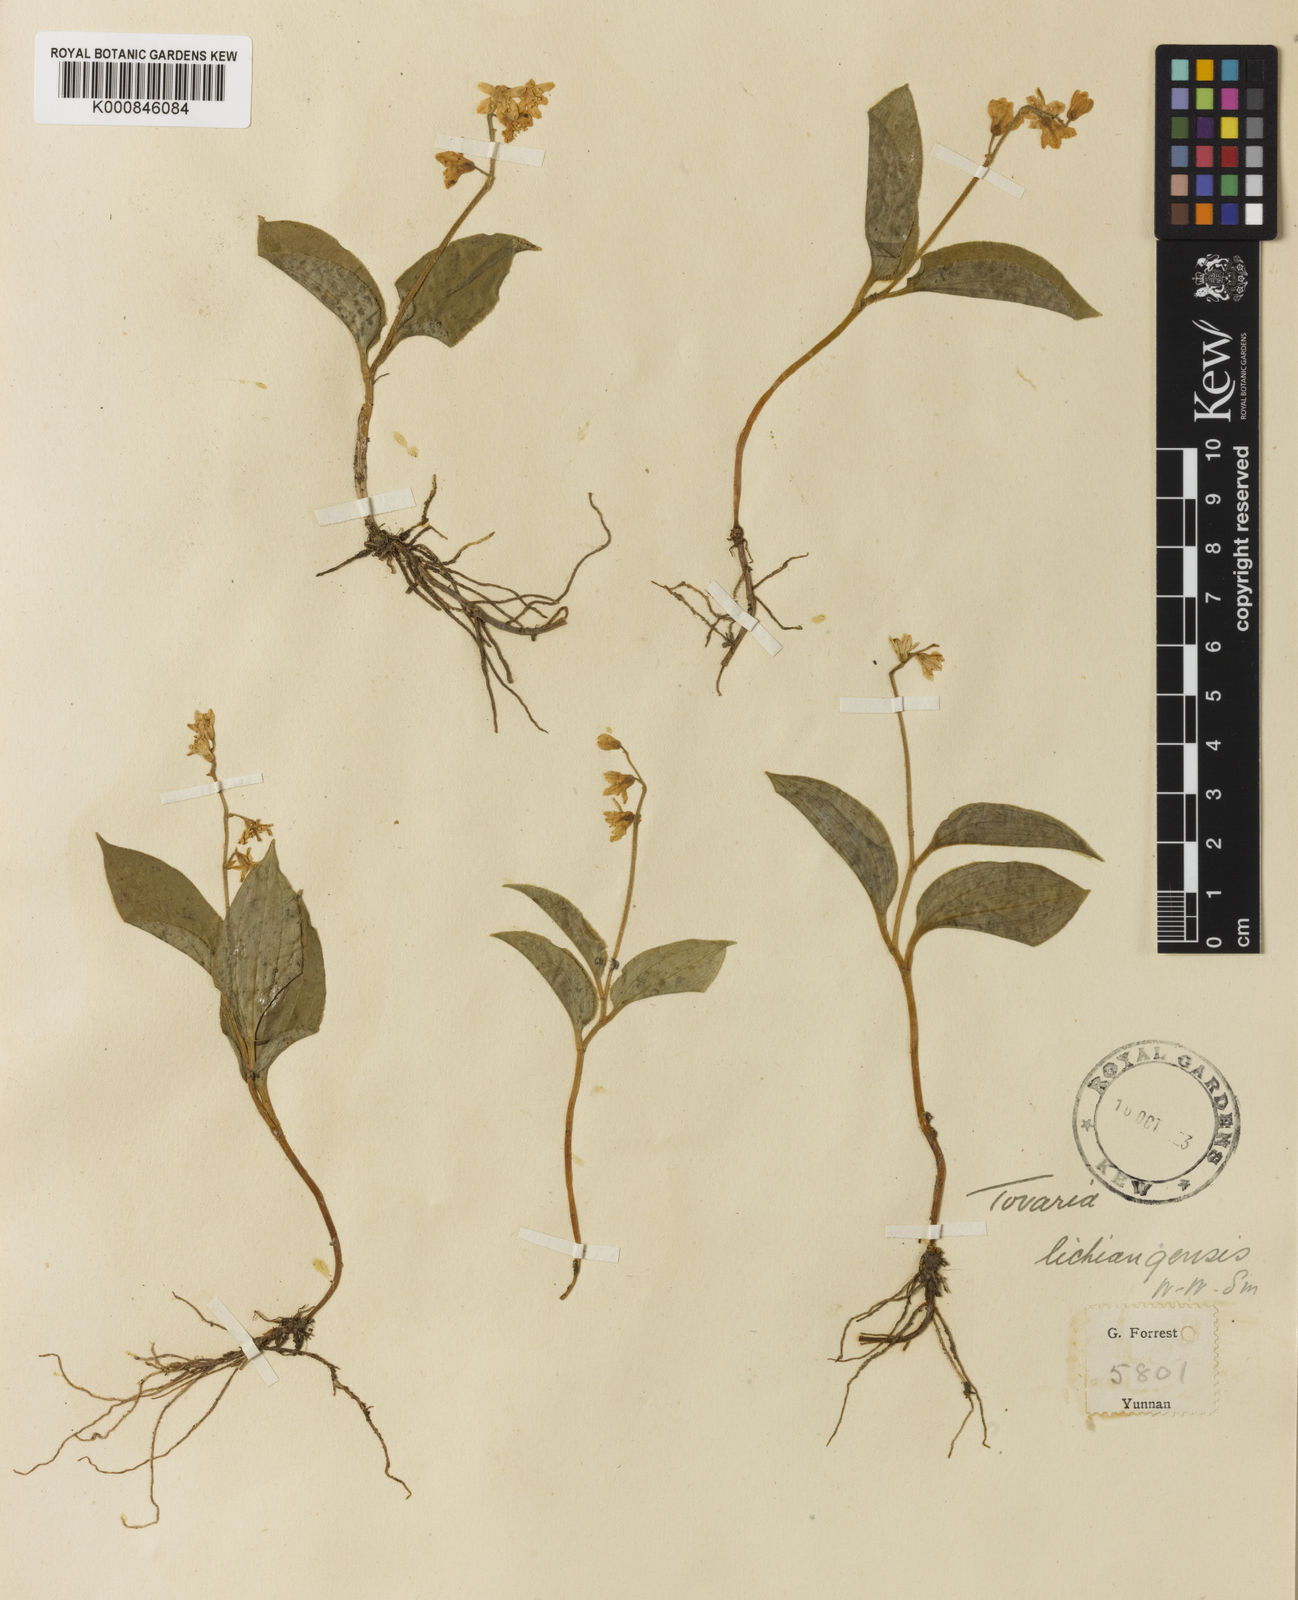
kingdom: Plantae
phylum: Tracheophyta
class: Liliopsida
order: Asparagales
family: Asparagaceae
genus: Maianthemum
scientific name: Maianthemum lichiangense
